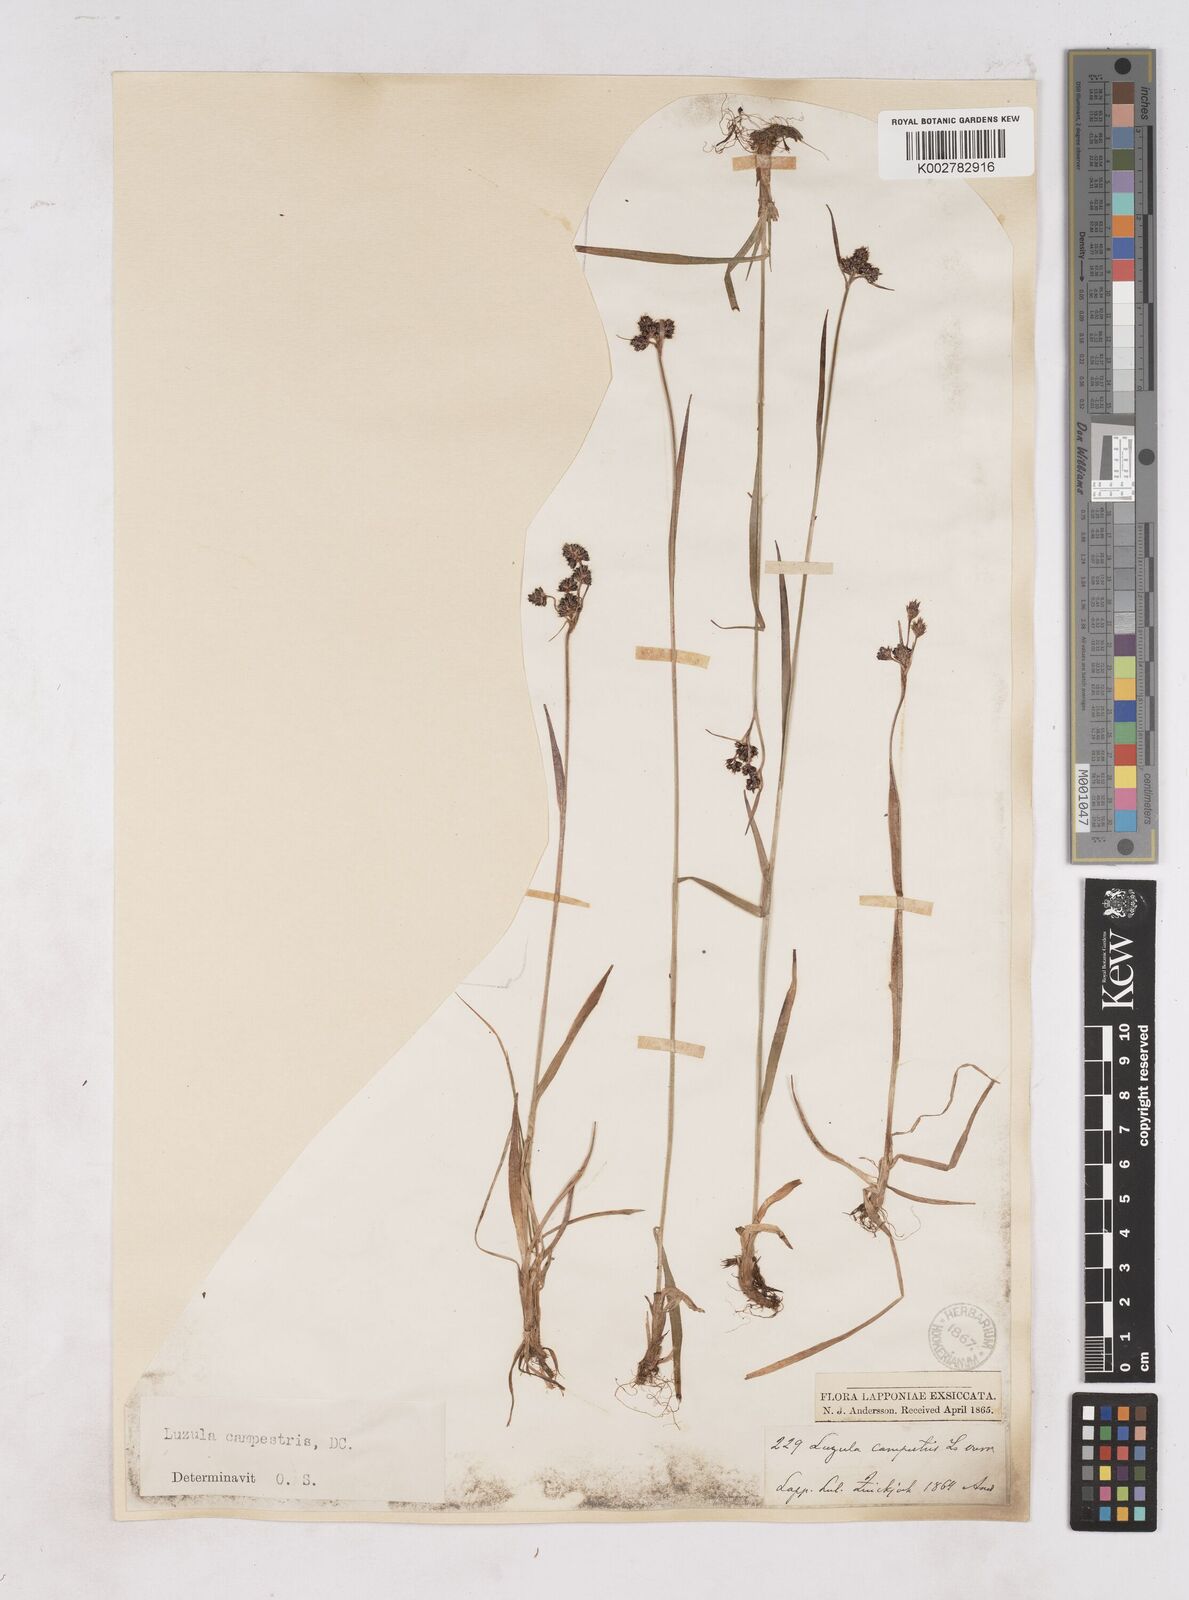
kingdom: Plantae
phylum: Tracheophyta
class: Liliopsida
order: Poales
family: Juncaceae
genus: Luzula
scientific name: Luzula campestris
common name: Field wood-rush
